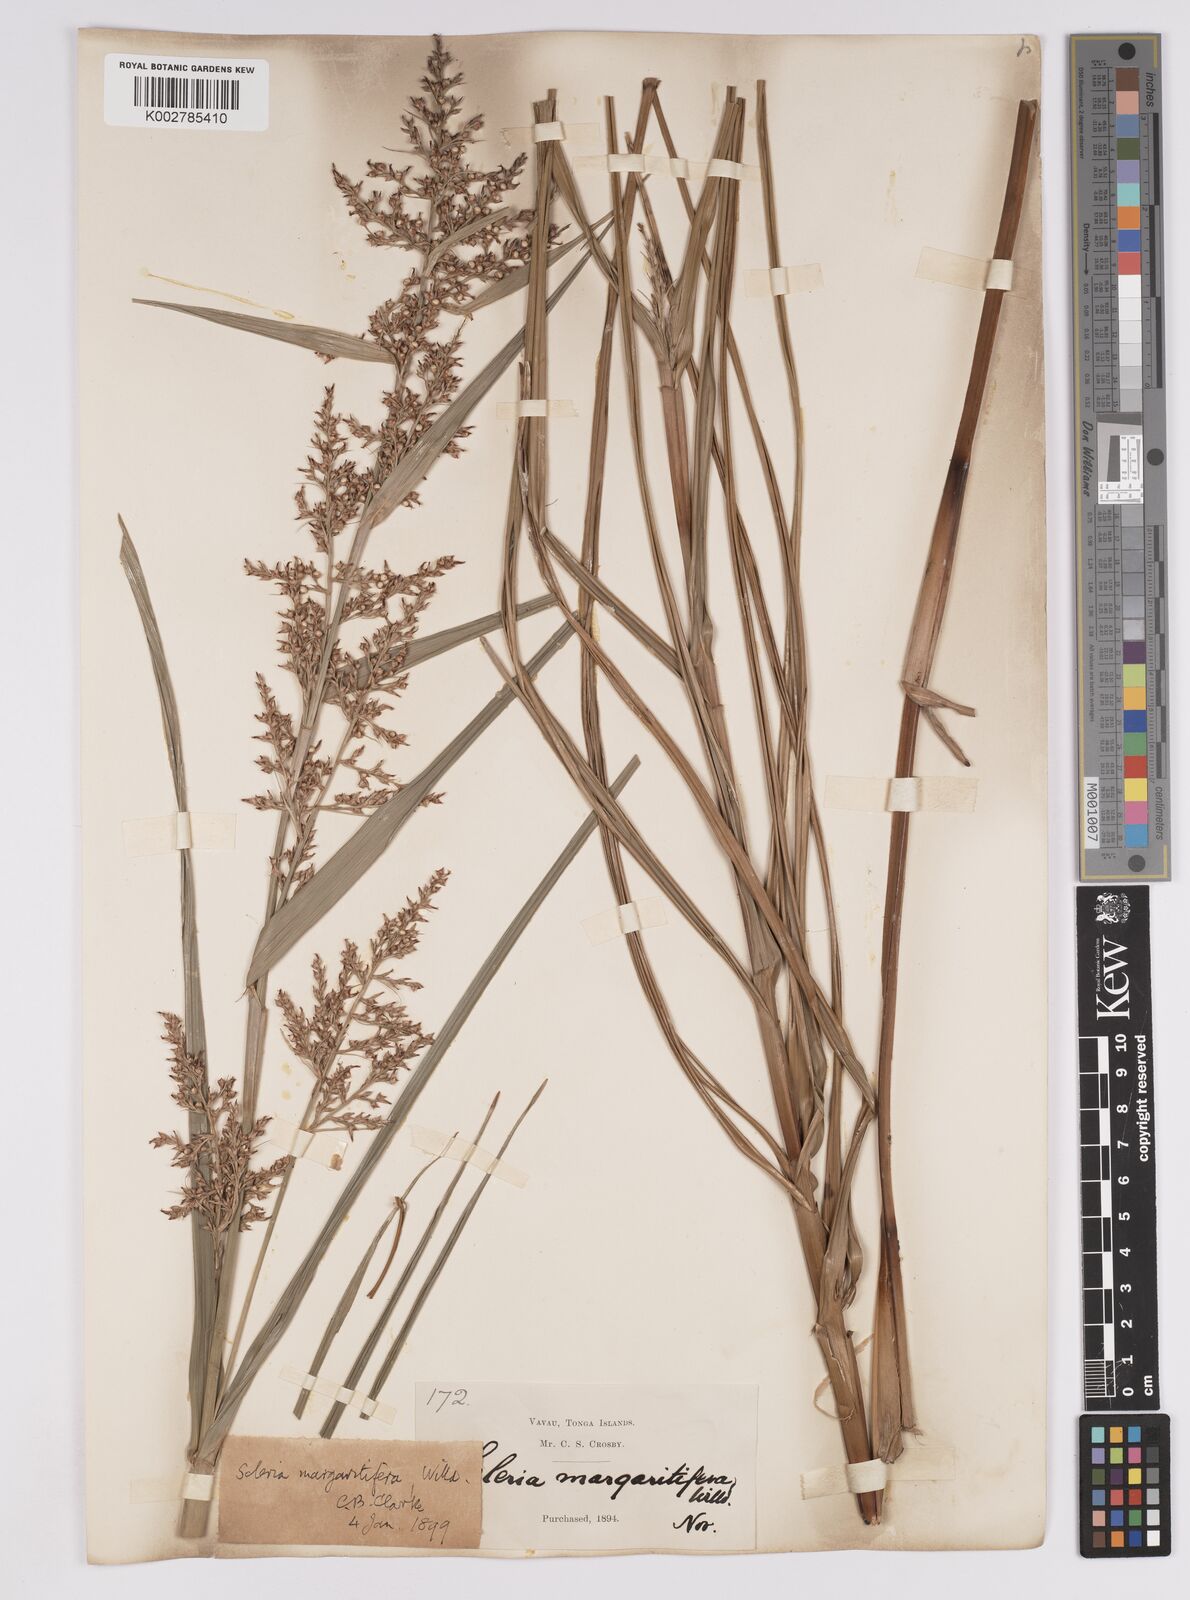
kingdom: Plantae
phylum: Tracheophyta
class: Liliopsida
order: Poales
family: Cyperaceae
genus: Scleria
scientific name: Scleria polycarpa
